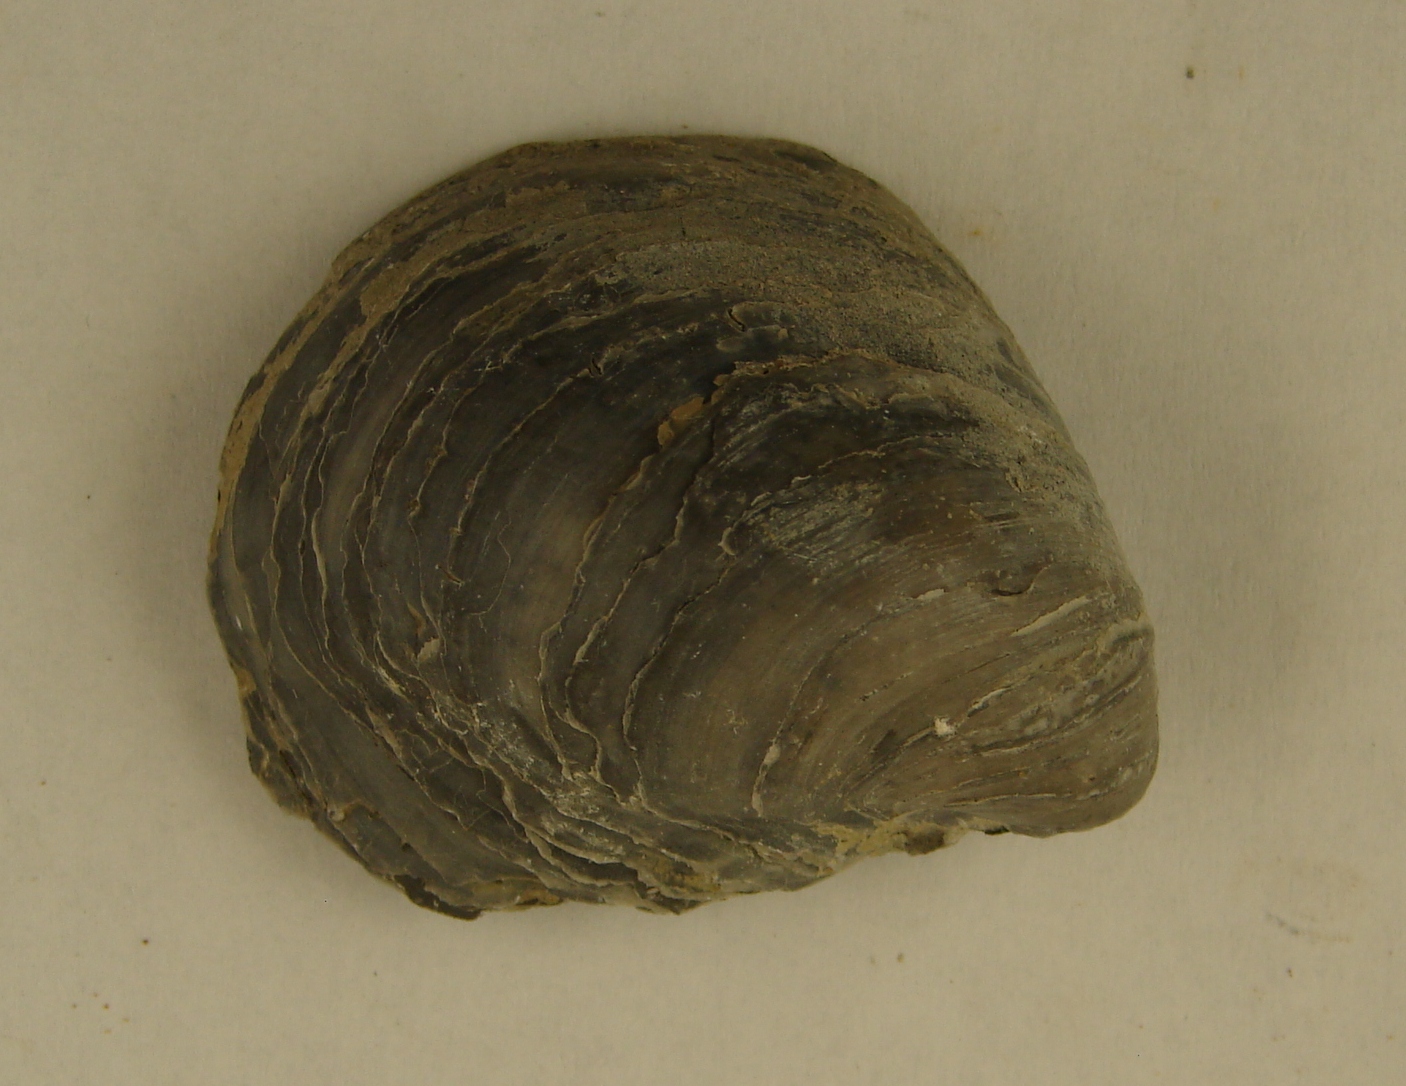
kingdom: Animalia
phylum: Mollusca
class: Bivalvia
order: Ostreida
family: Gryphaeidae
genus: Gryphaea
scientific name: Gryphaea
